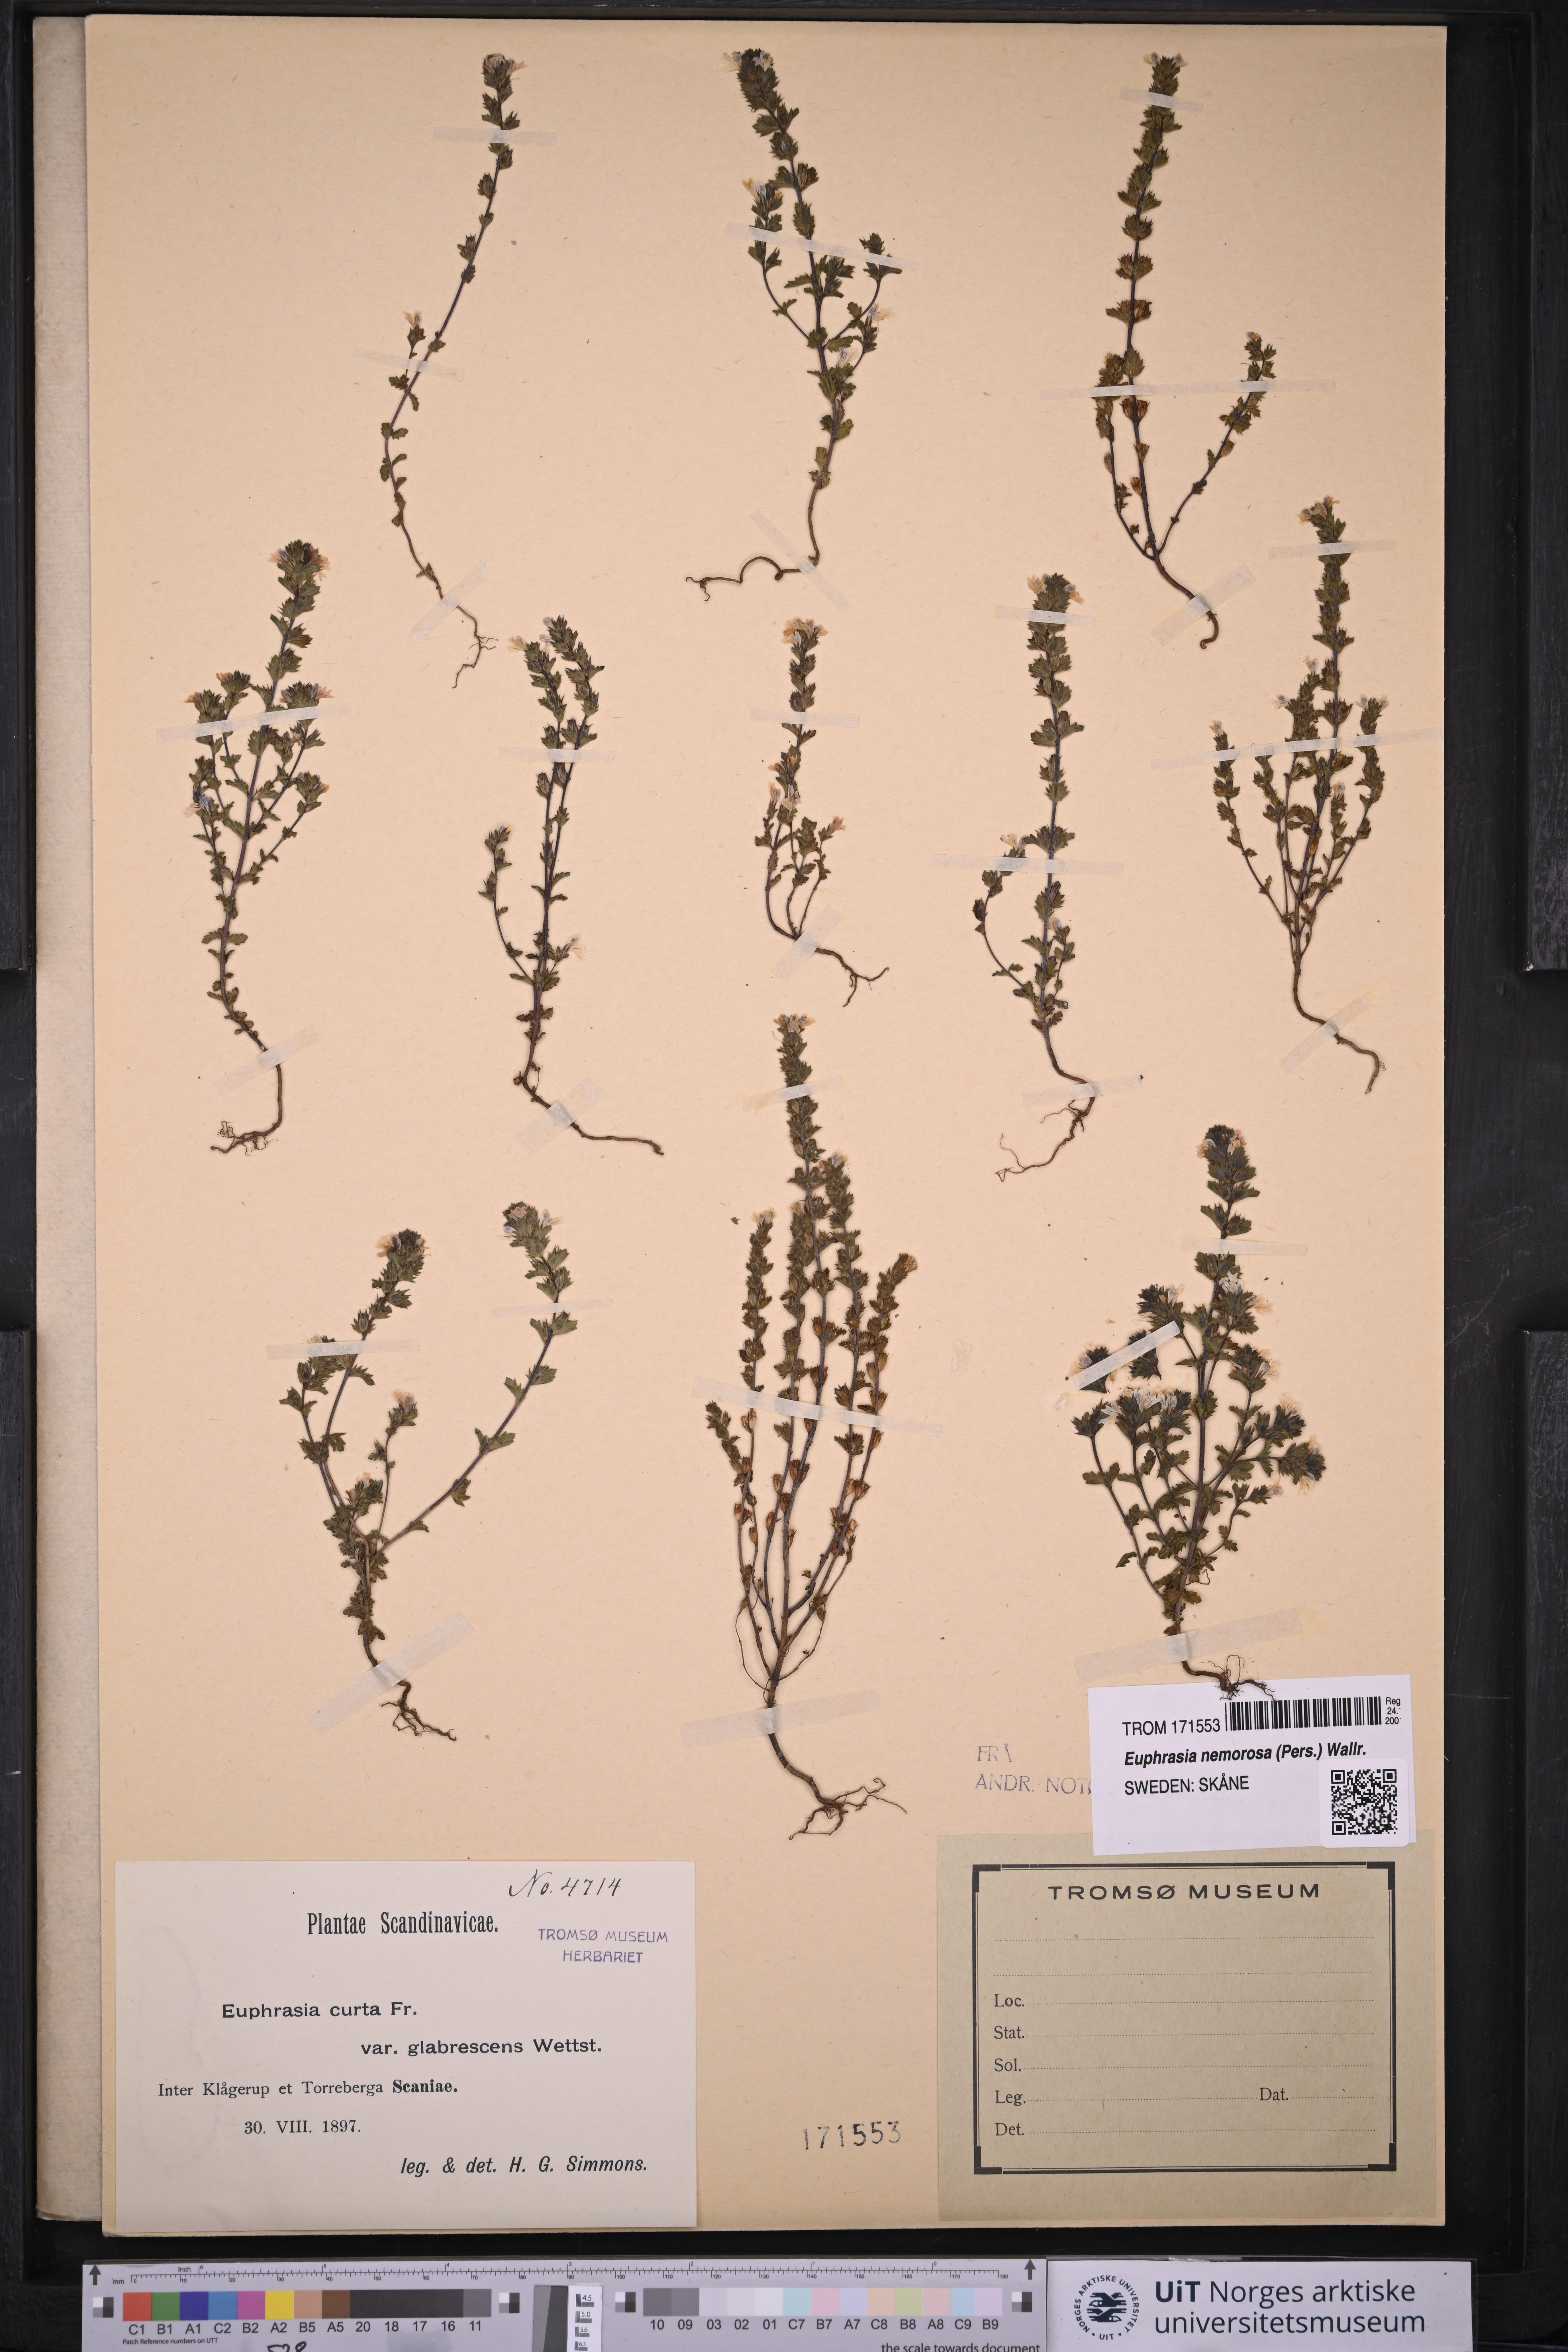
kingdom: Plantae
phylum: Tracheophyta
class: Magnoliopsida
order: Lamiales
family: Orobanchaceae
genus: Euphrasia
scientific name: Euphrasia micrantha
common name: Northern eyebright
